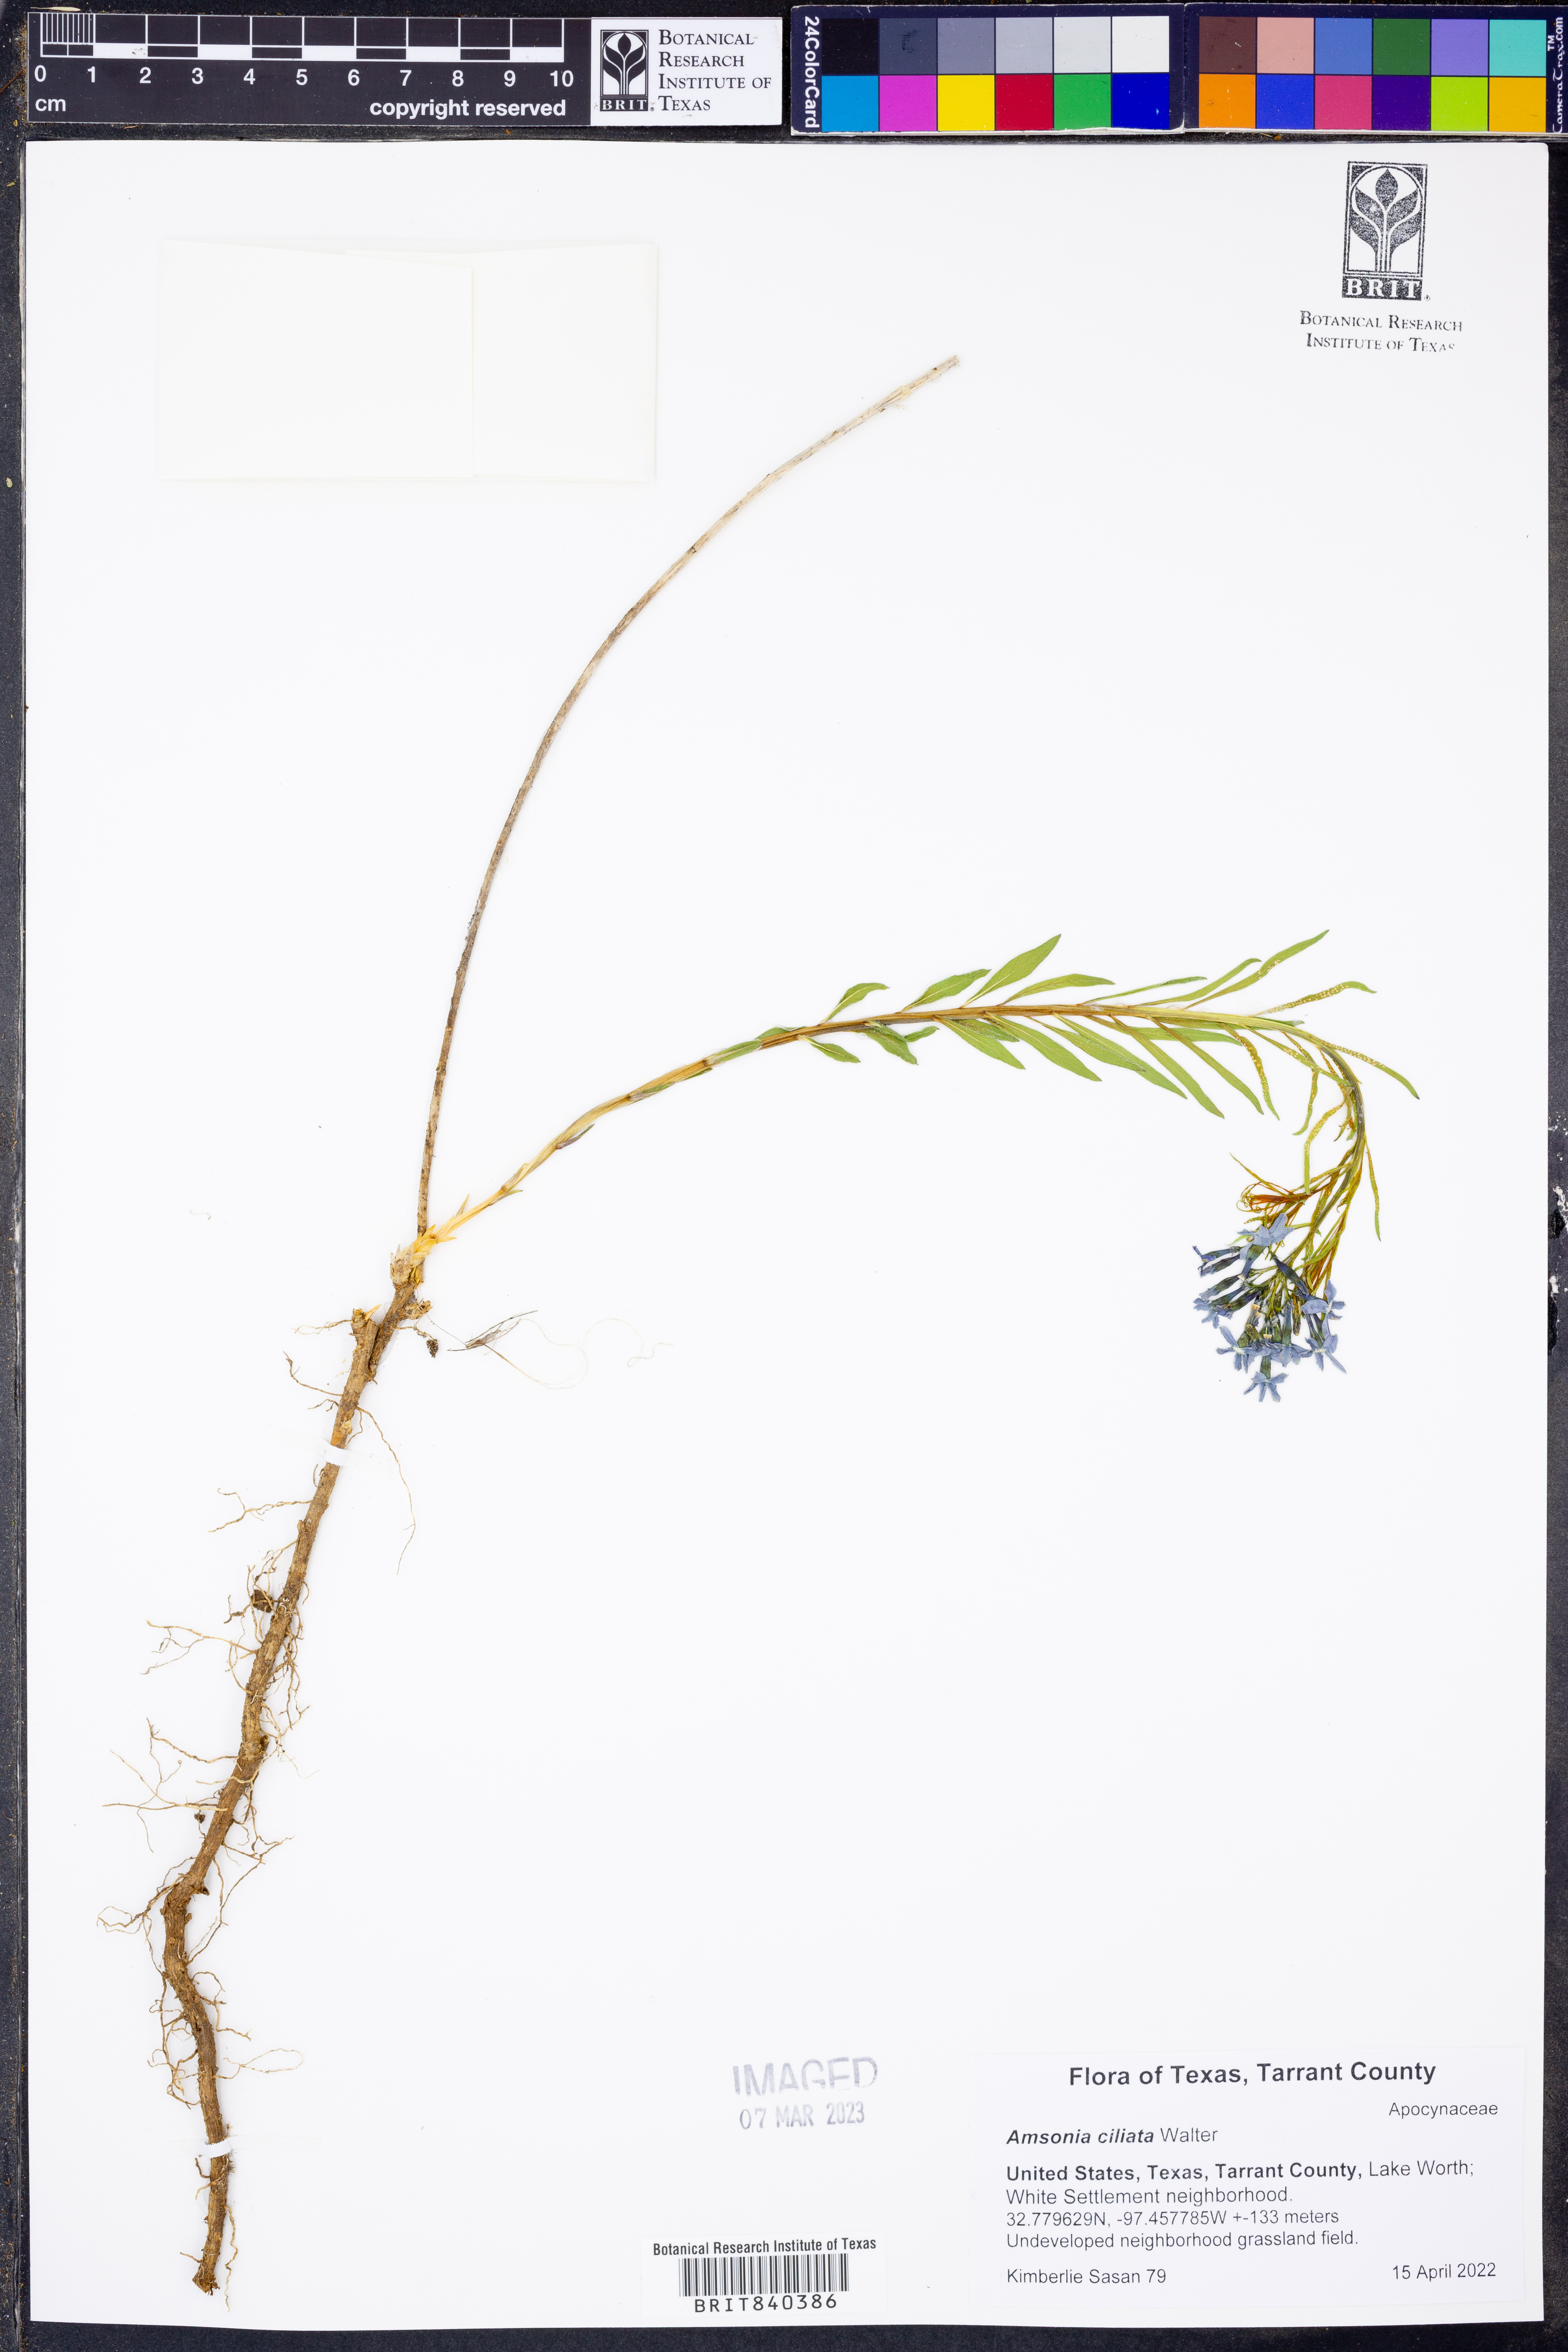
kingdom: Plantae
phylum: Tracheophyta
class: Magnoliopsida
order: Gentianales
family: Apocynaceae
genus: Amsonia
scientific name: Amsonia ciliata
